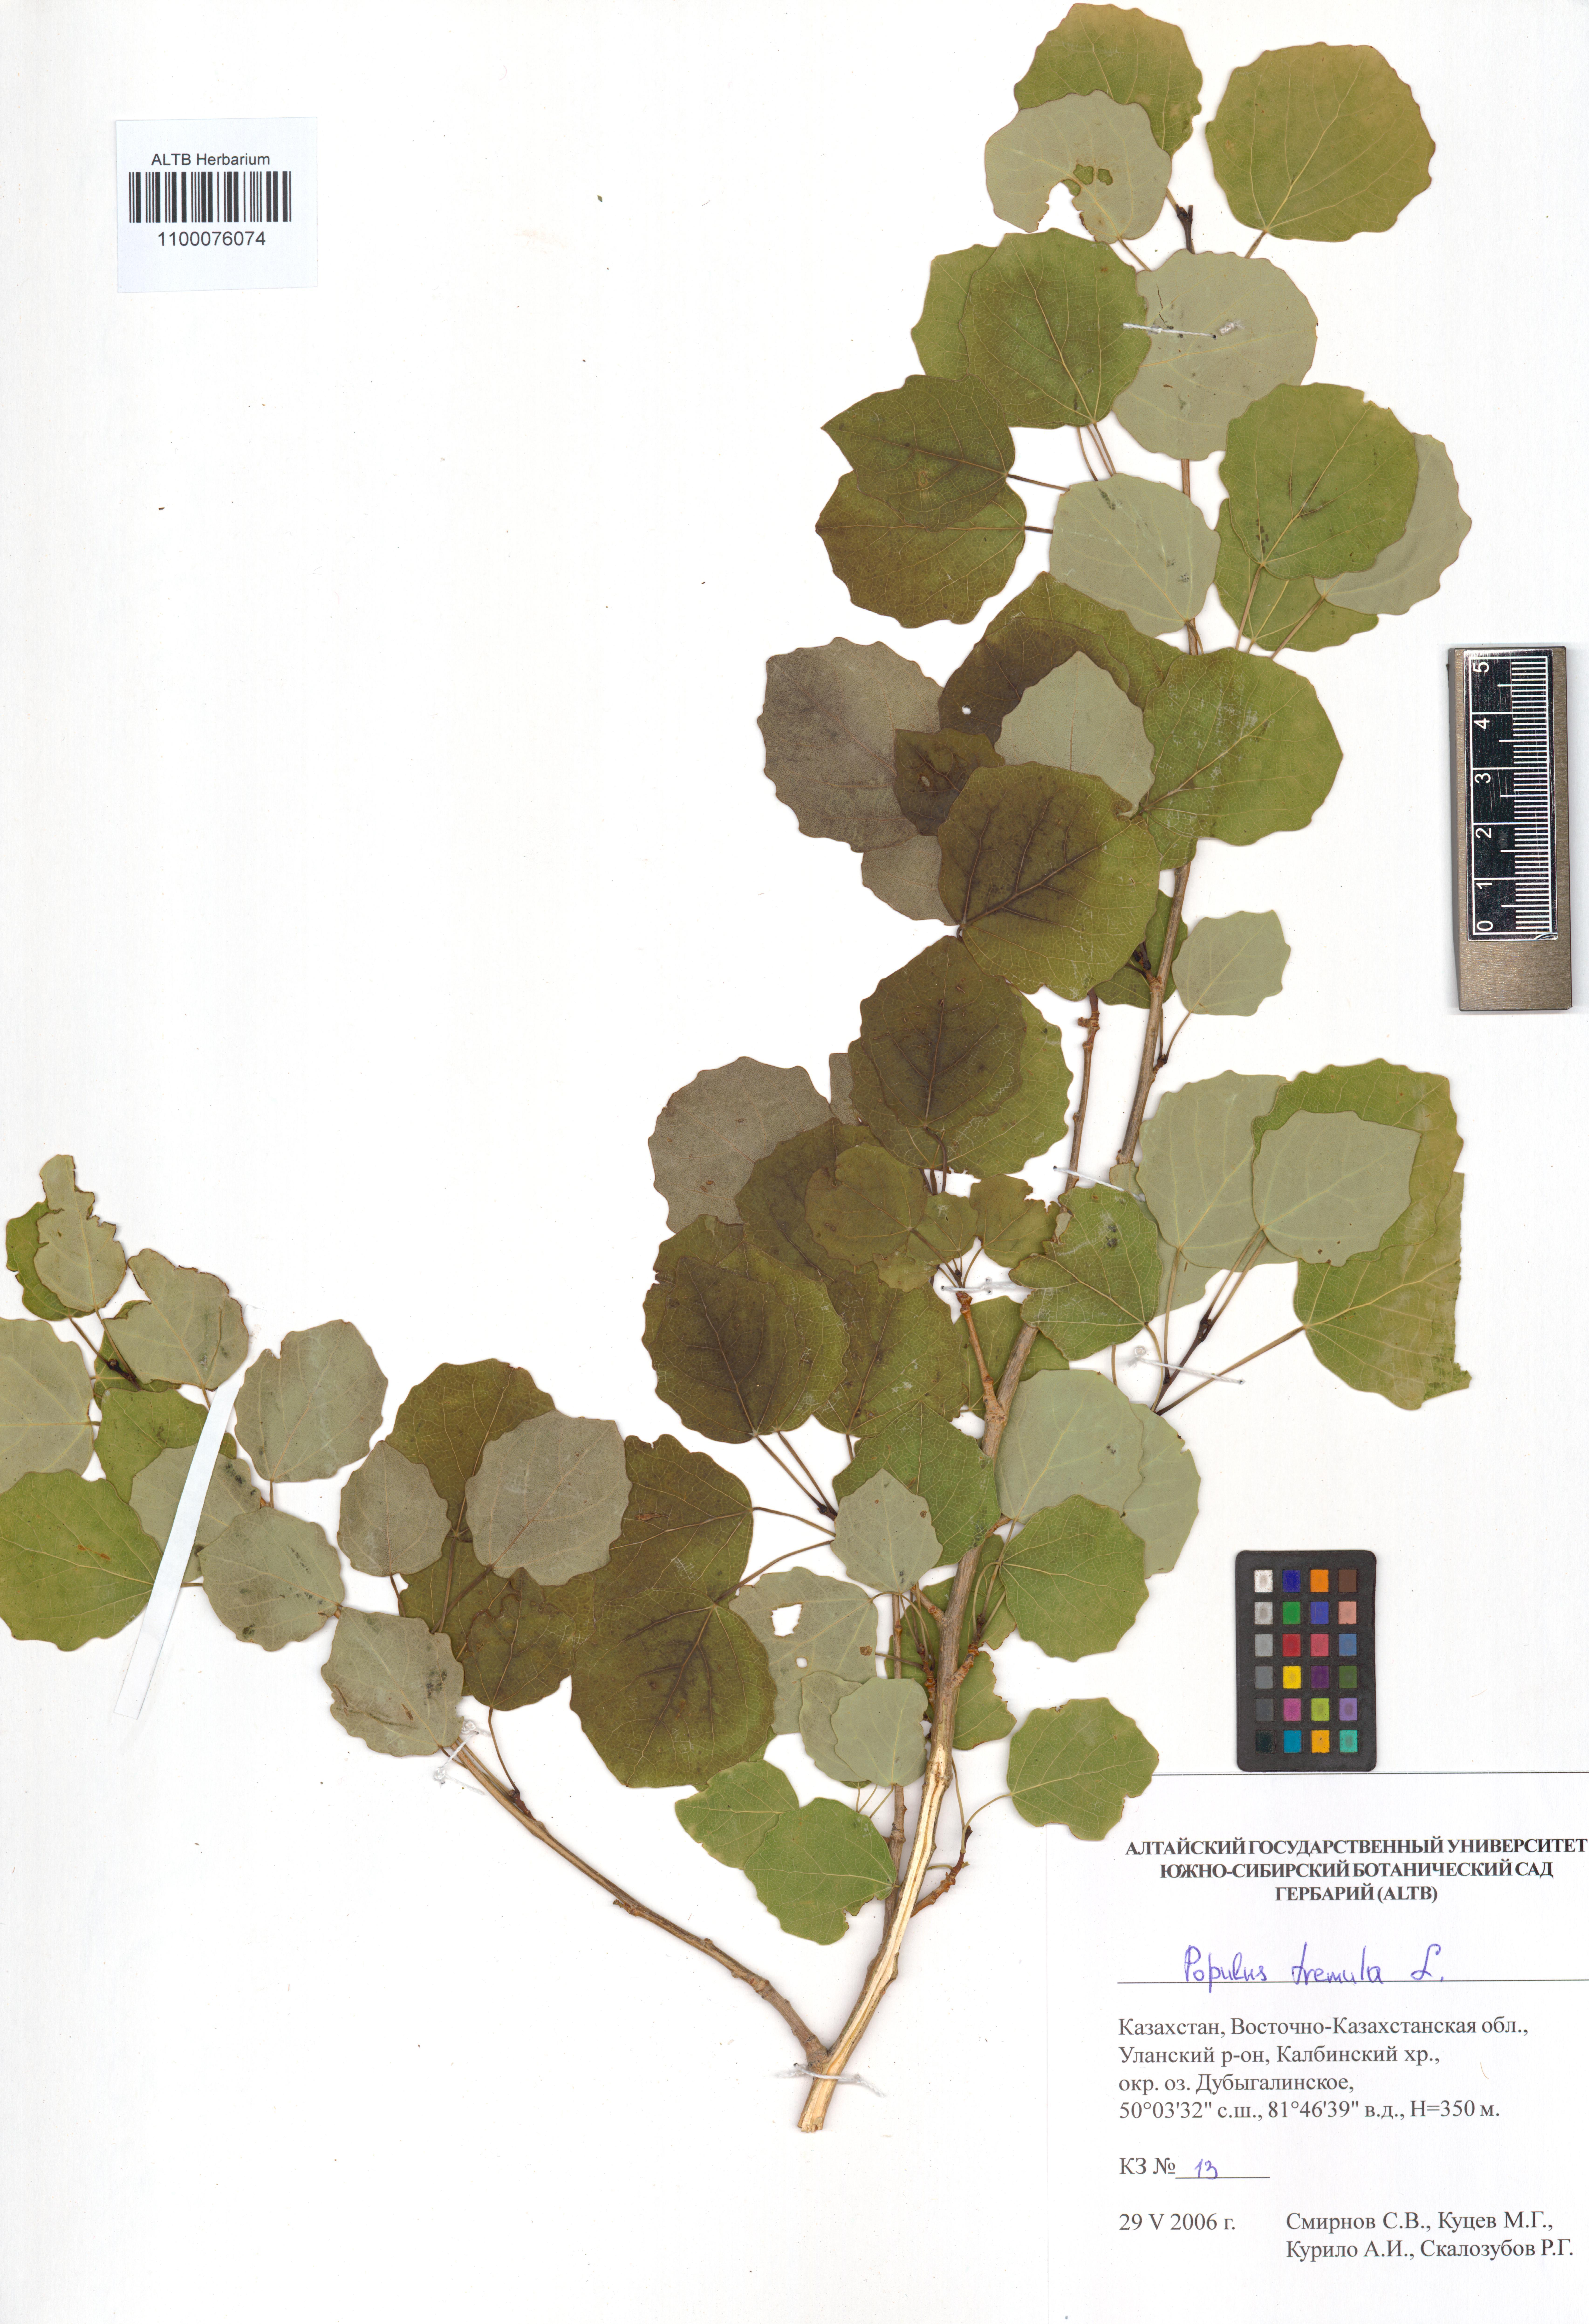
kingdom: Plantae
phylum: Tracheophyta
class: Magnoliopsida
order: Malpighiales
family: Salicaceae
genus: Populus
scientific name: Populus tremula
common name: European aspen
